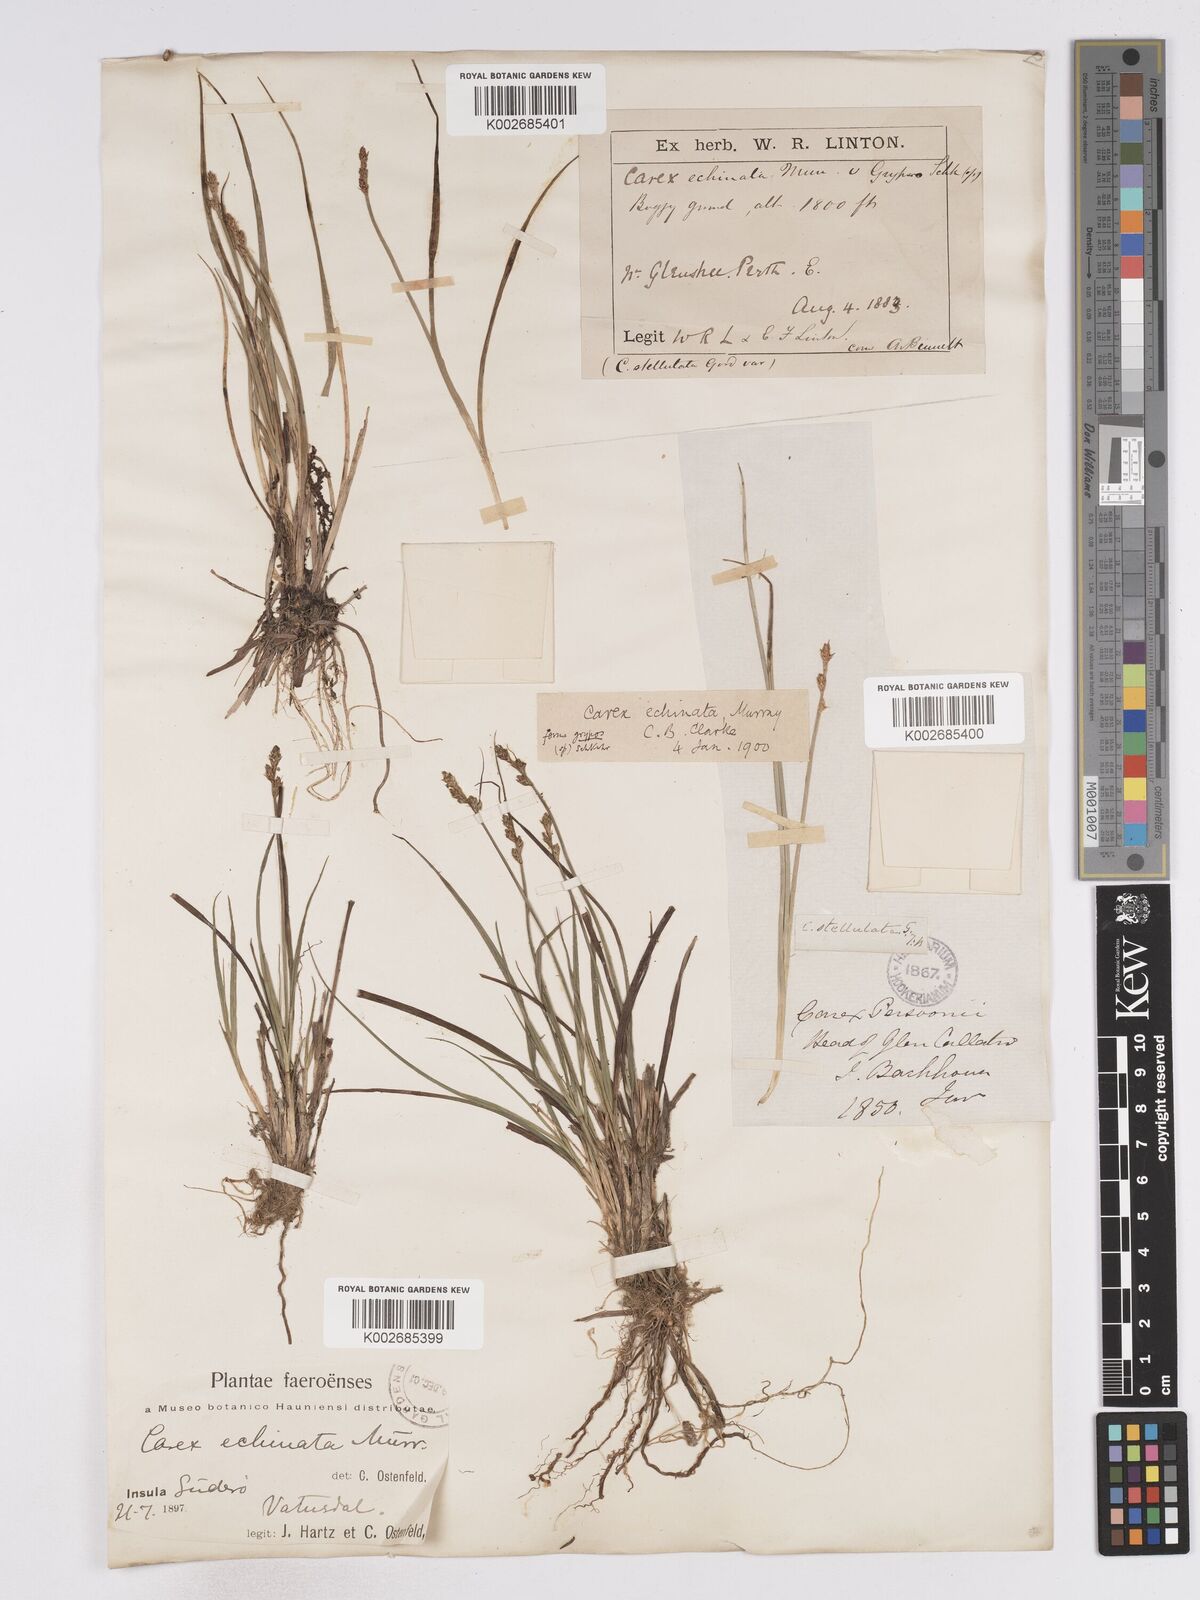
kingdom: Plantae
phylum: Tracheophyta
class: Liliopsida
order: Poales
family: Cyperaceae
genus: Carex
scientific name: Carex echinata
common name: Star sedge
